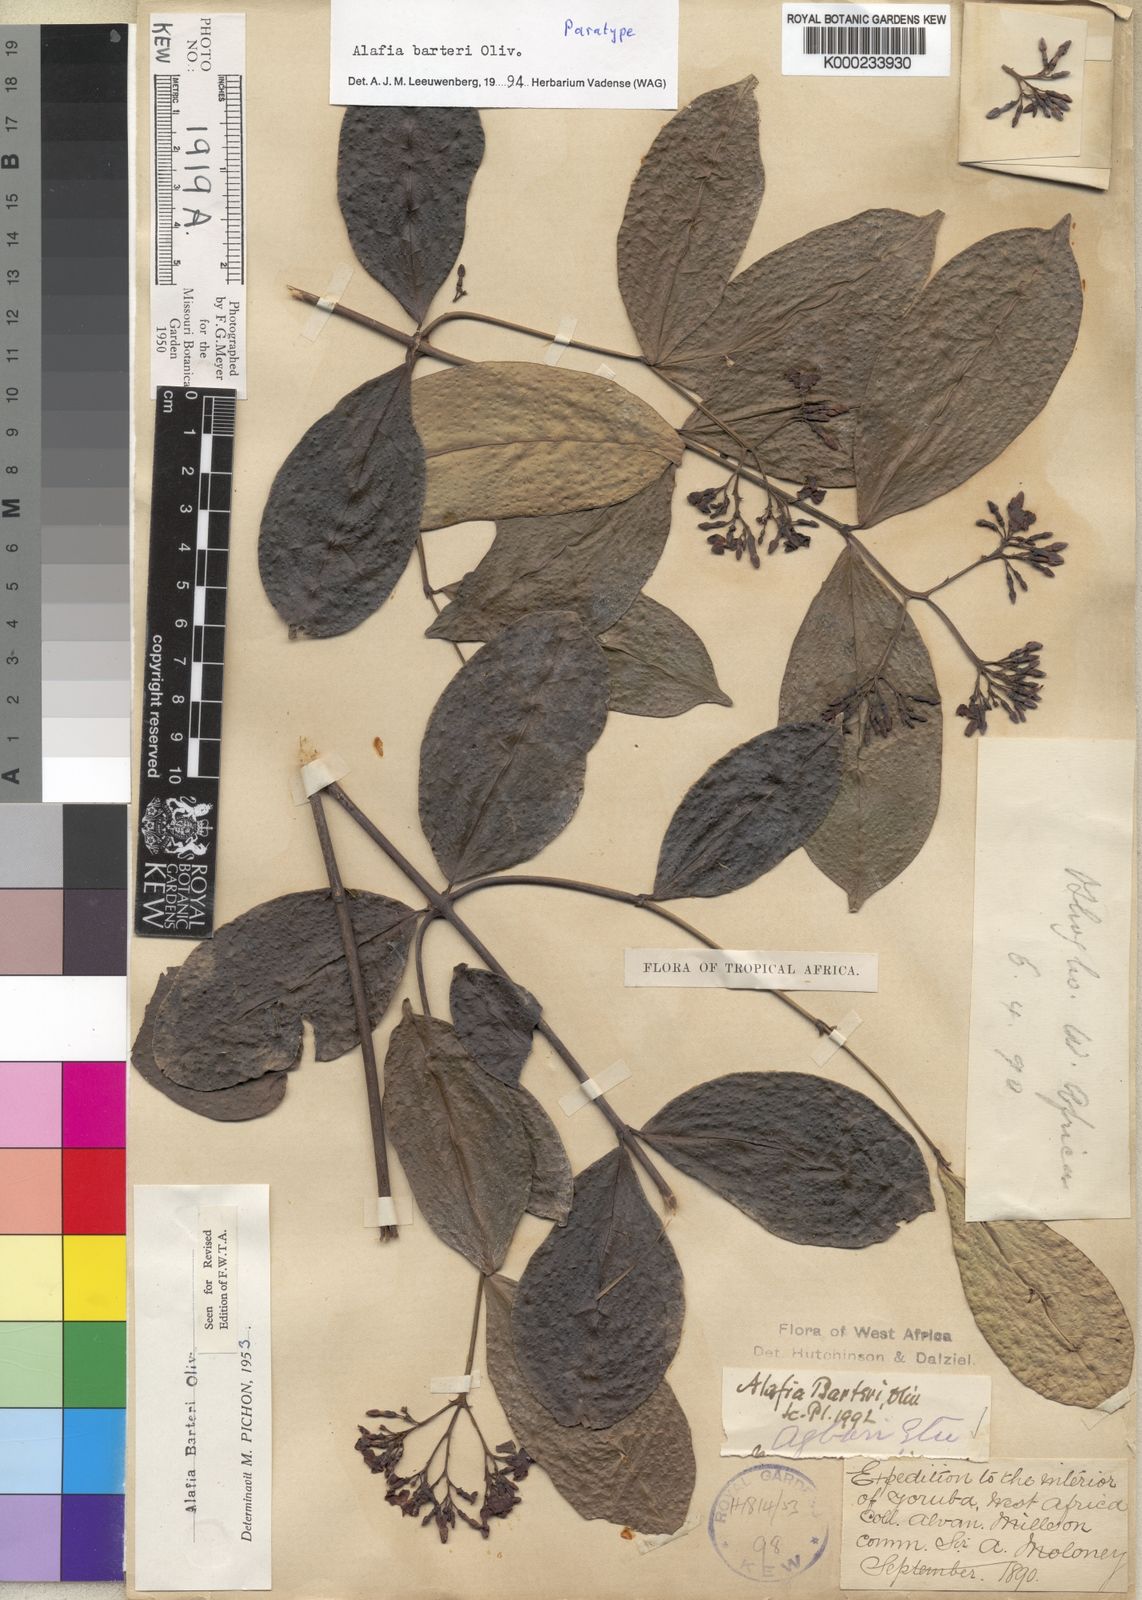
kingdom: Plantae
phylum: Tracheophyta
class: Magnoliopsida
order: Gentianales
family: Apocynaceae
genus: Alafia
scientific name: Alafia barteri
